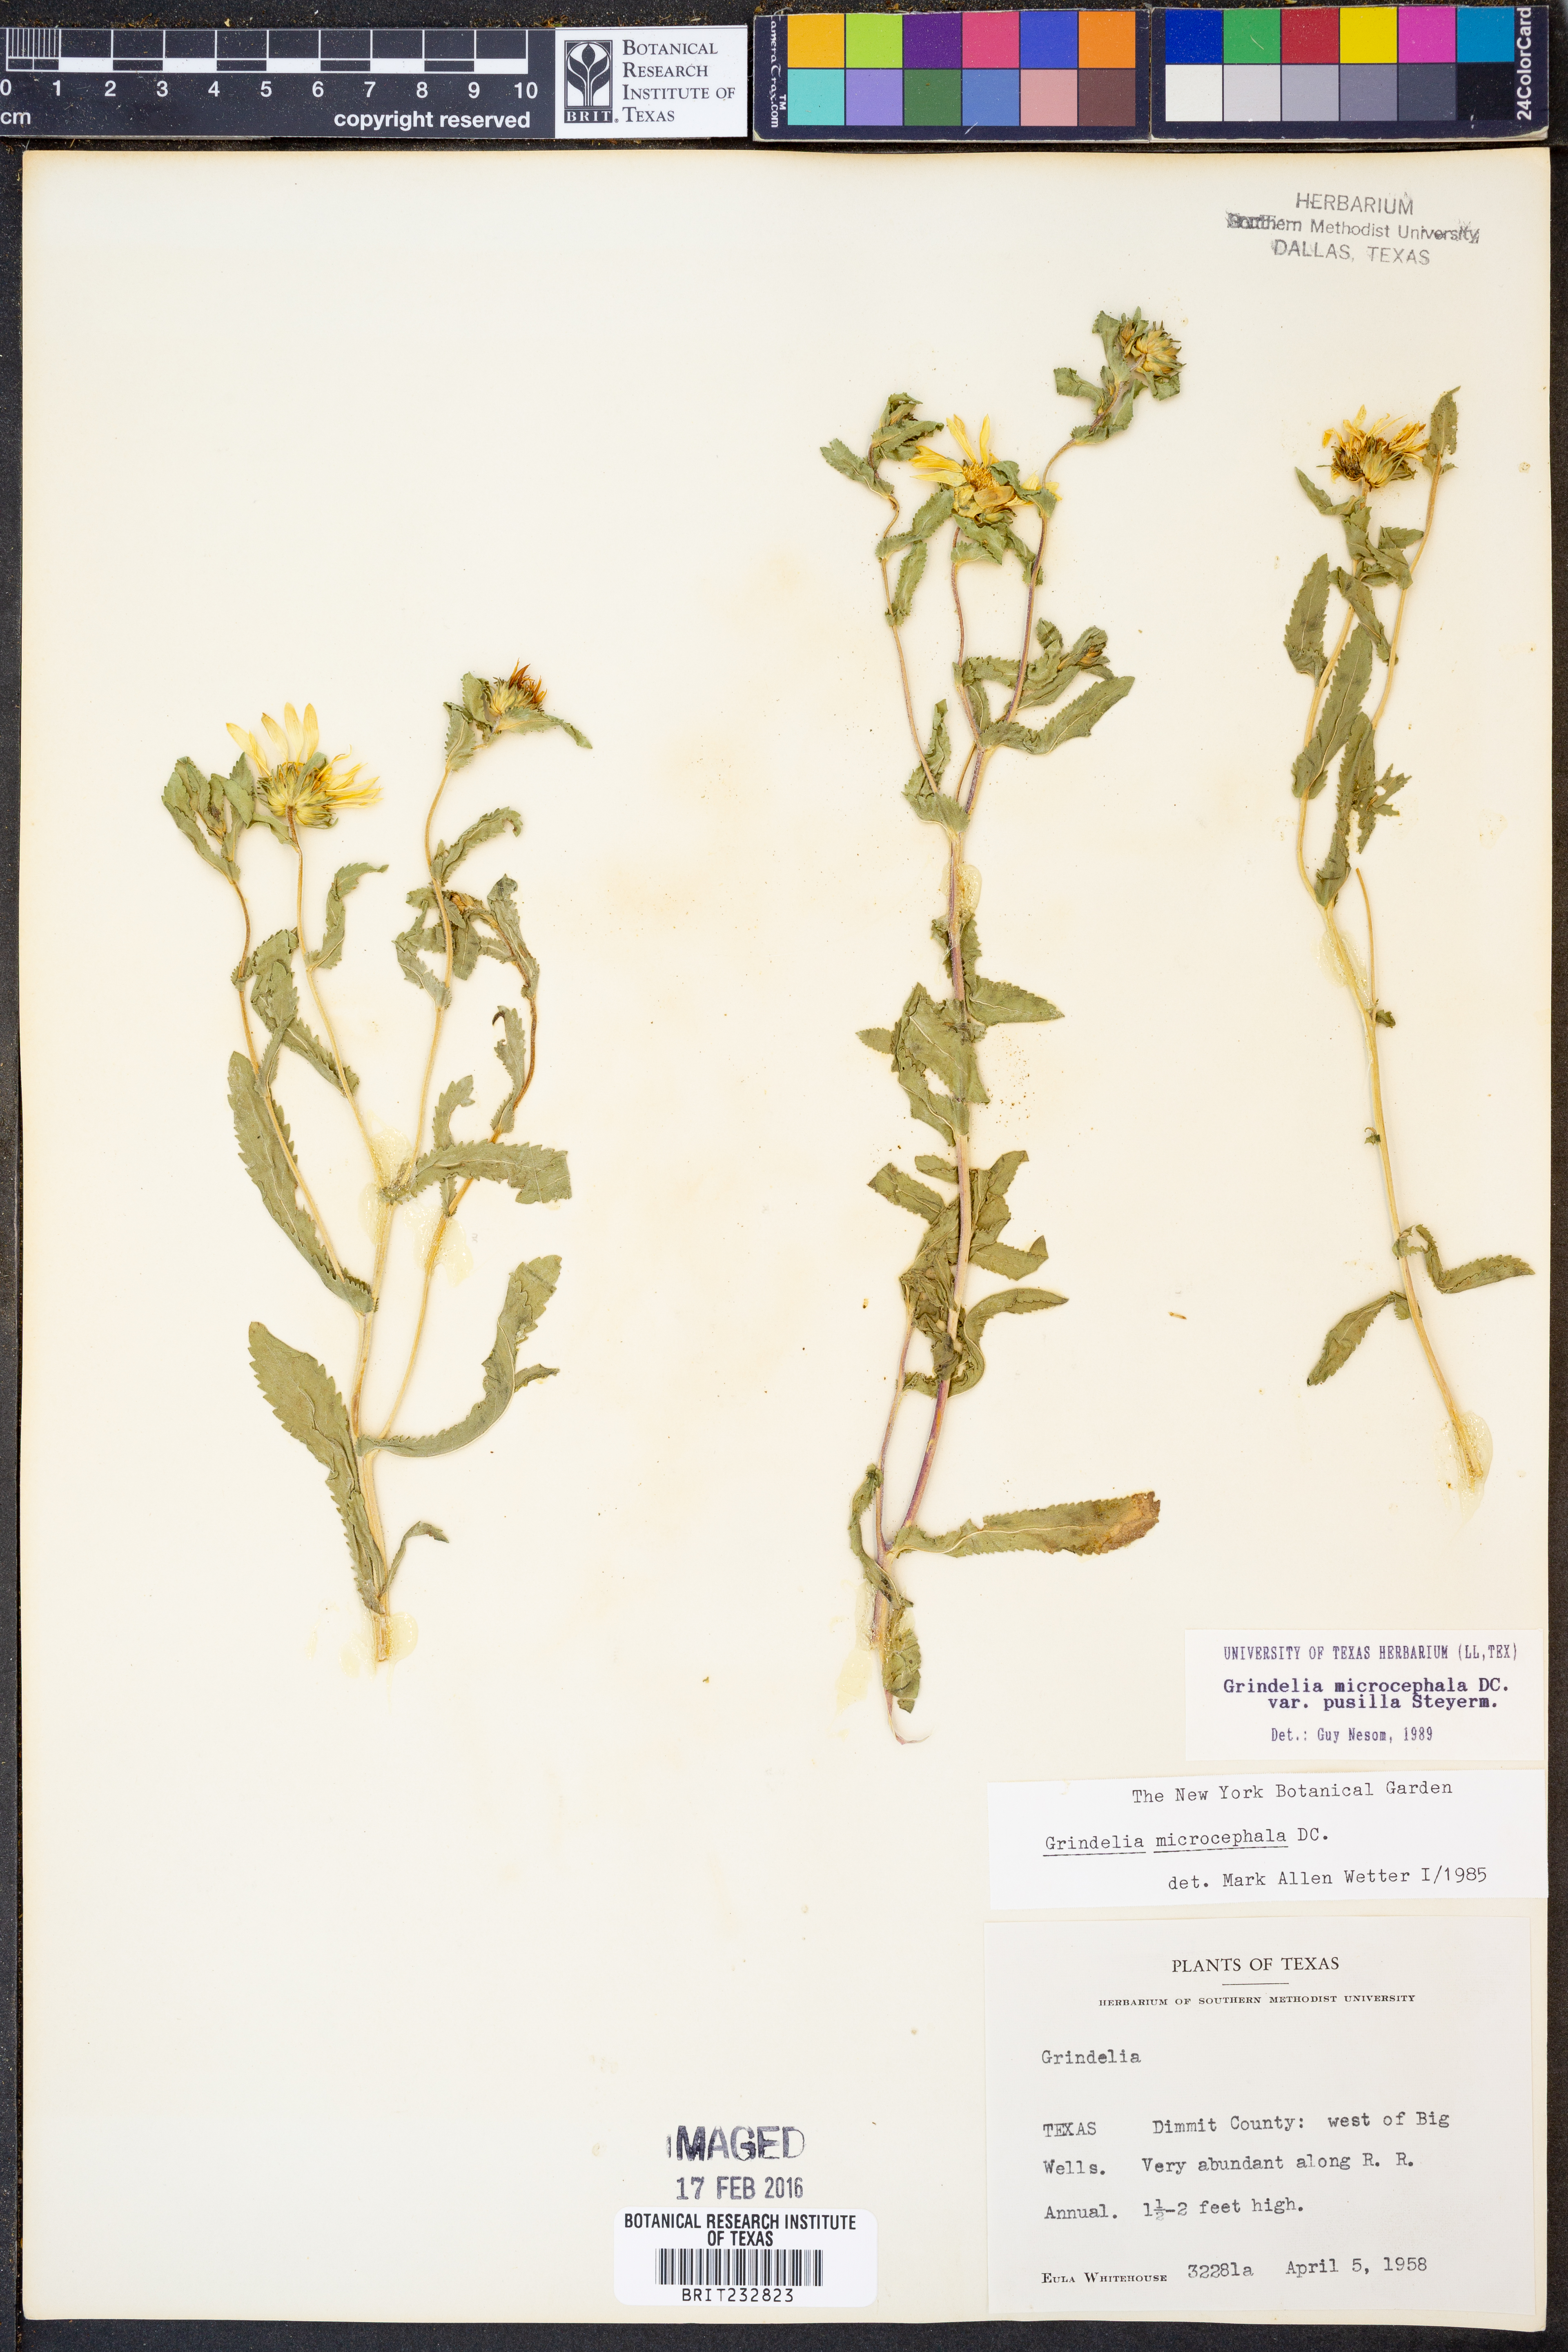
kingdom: Plantae
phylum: Tracheophyta
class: Magnoliopsida
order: Asterales
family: Asteraceae
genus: Grindelia
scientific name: Grindelia pusilla
